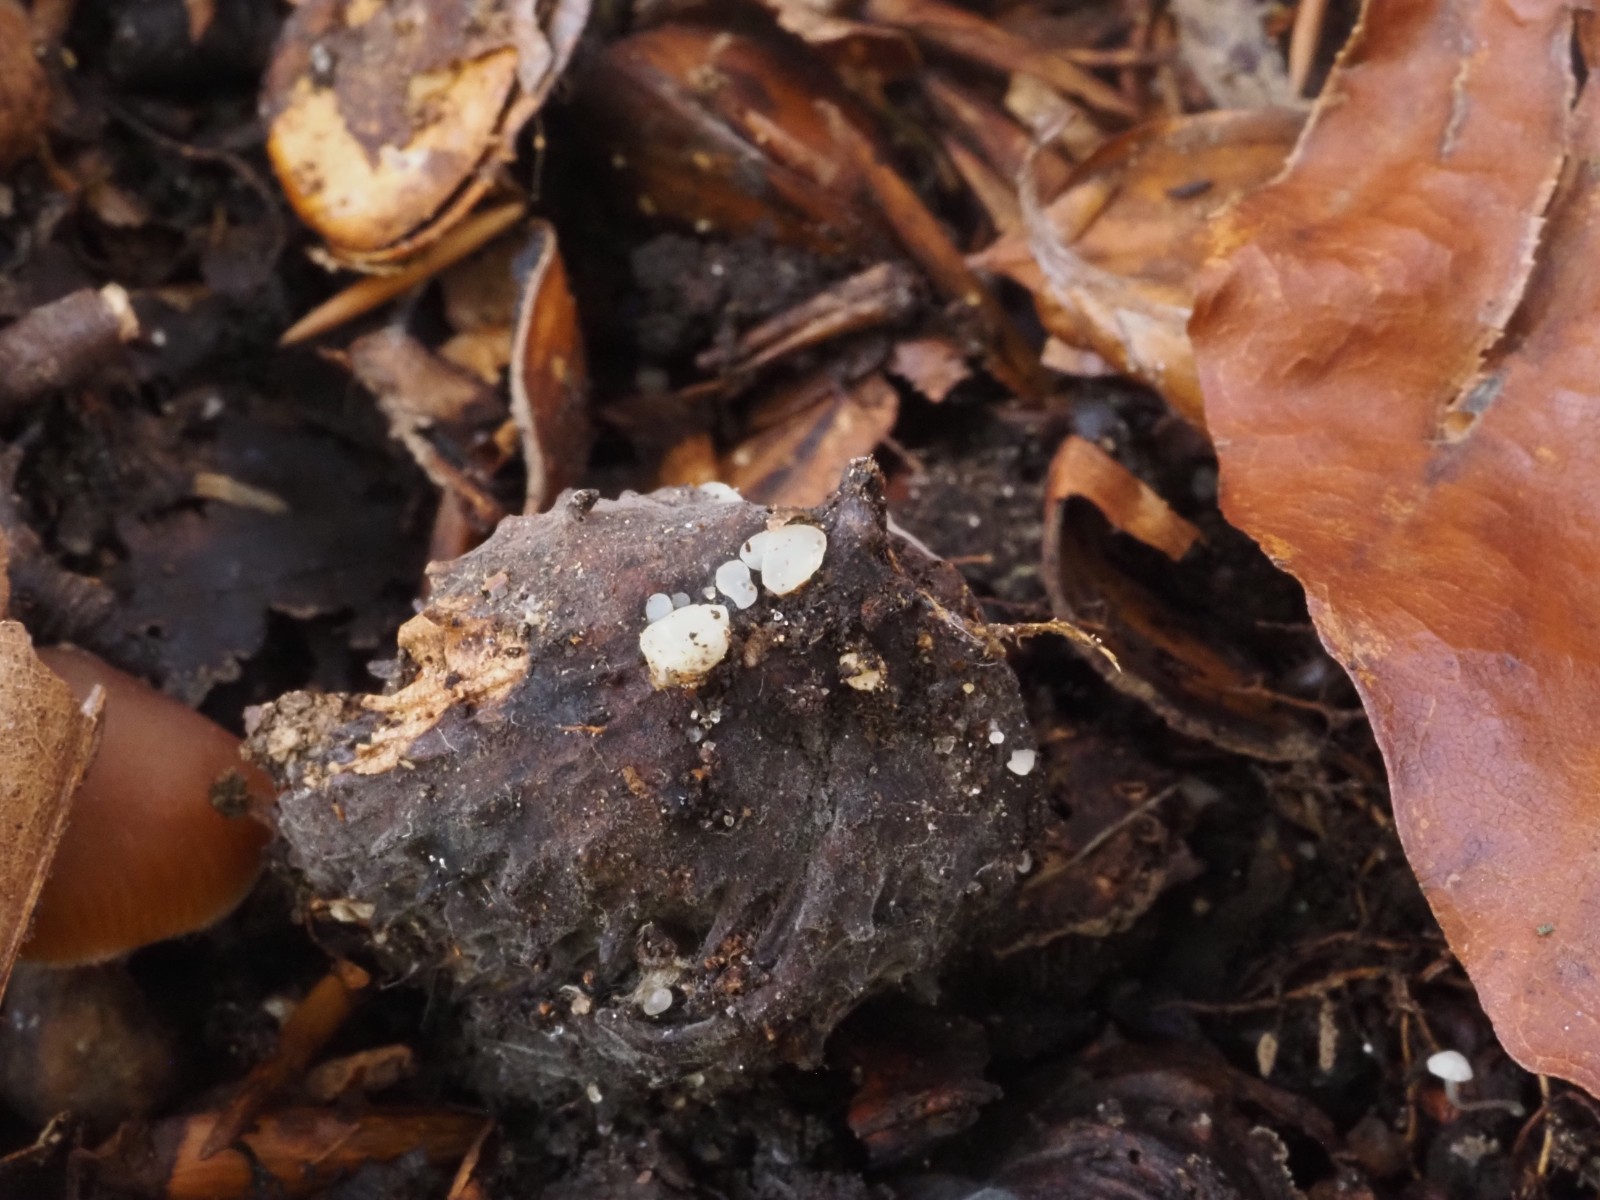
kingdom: Fungi
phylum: Ascomycota
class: Leotiomycetes
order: Helotiales
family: Helotiaceae
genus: Hymenoscyphus
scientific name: Hymenoscyphus fagineus
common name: vellugtende stilkskive
